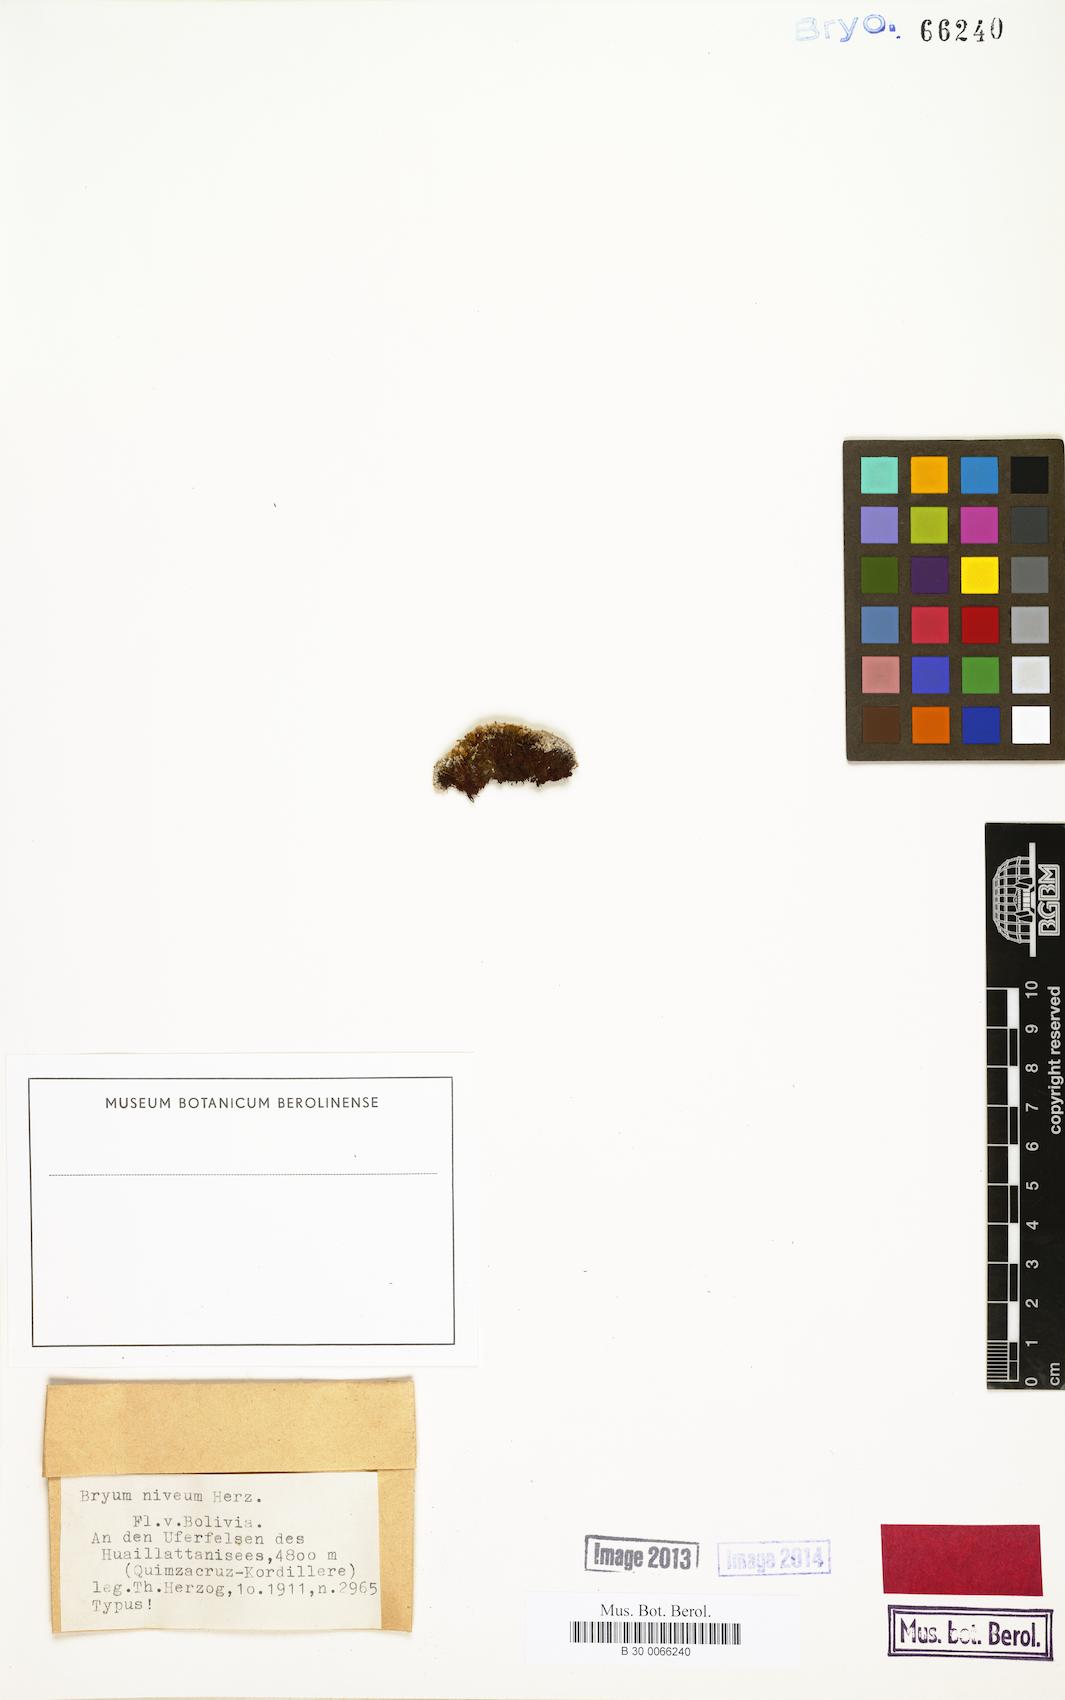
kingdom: Plantae
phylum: Bryophyta
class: Bryopsida
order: Bryales
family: Bryaceae
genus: Bryum
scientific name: Bryum argenteum
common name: Silver-moss
